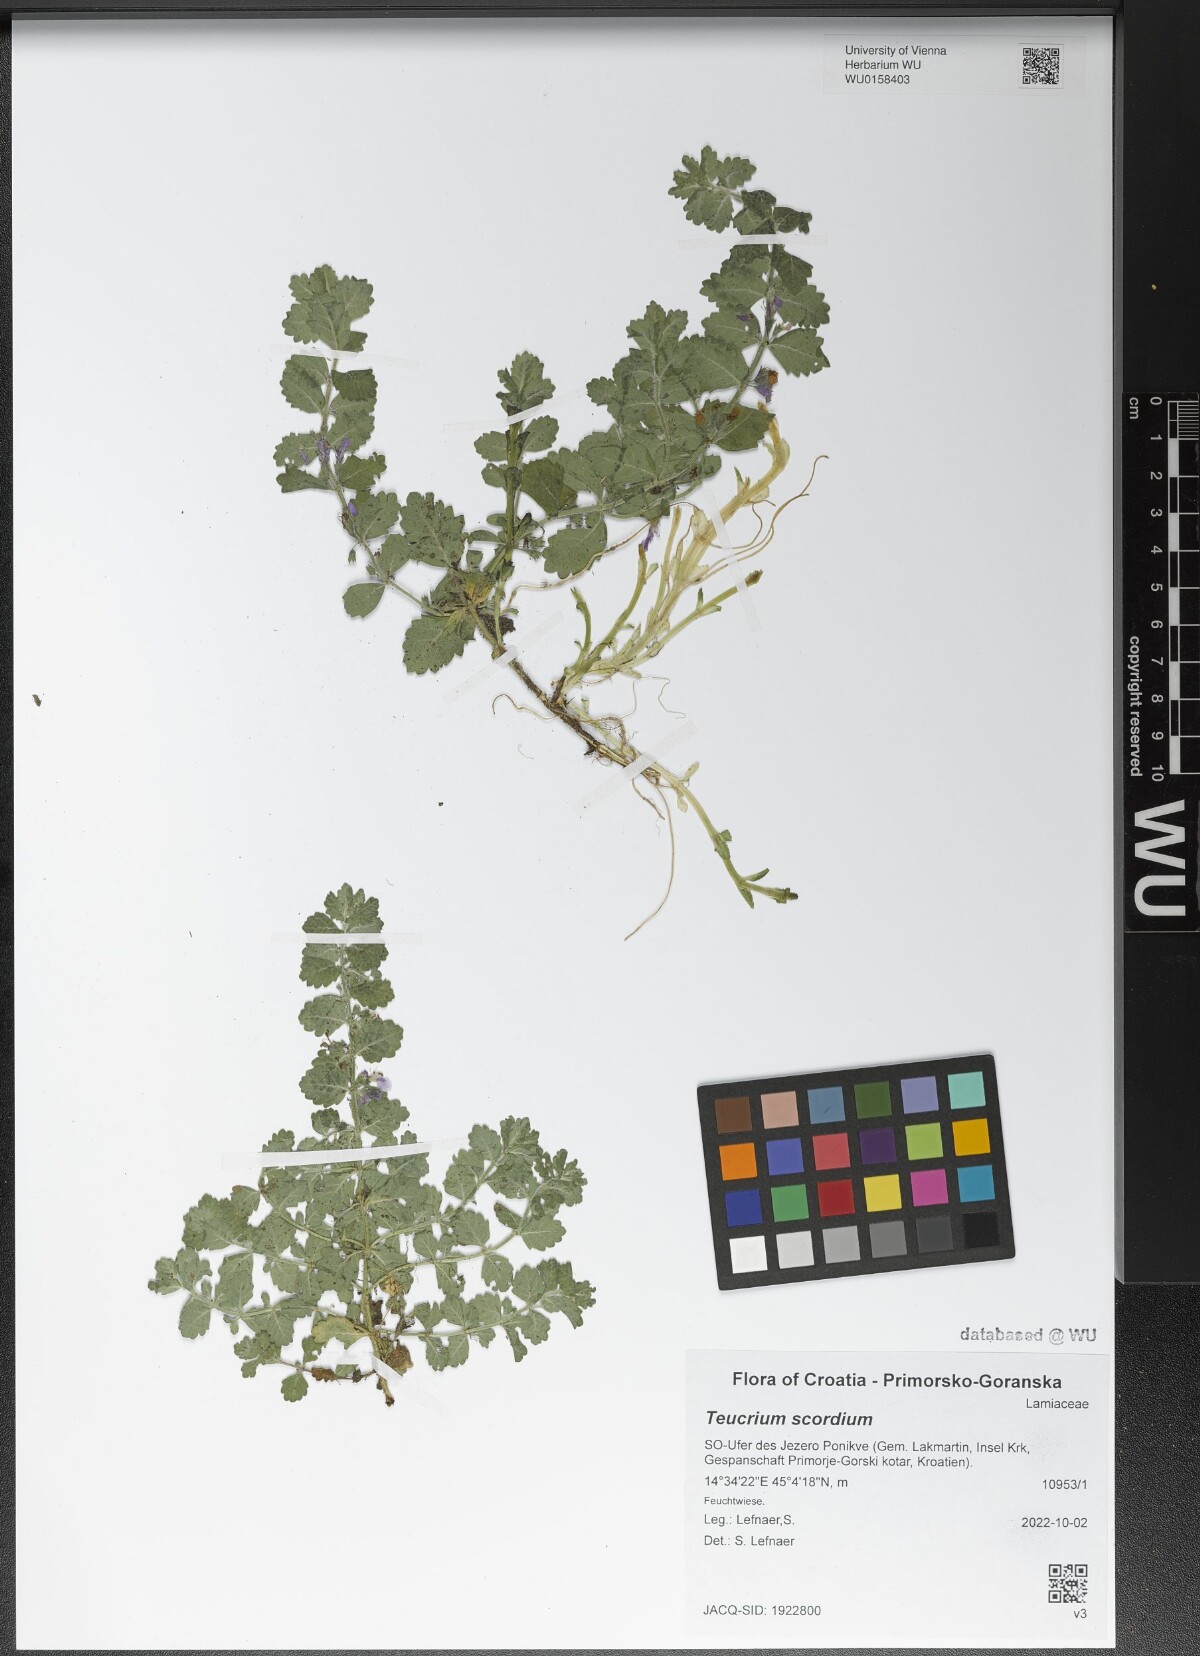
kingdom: Plantae
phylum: Tracheophyta
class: Magnoliopsida
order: Lamiales
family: Lamiaceae
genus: Teucrium
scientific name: Teucrium scordium
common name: Water germander
